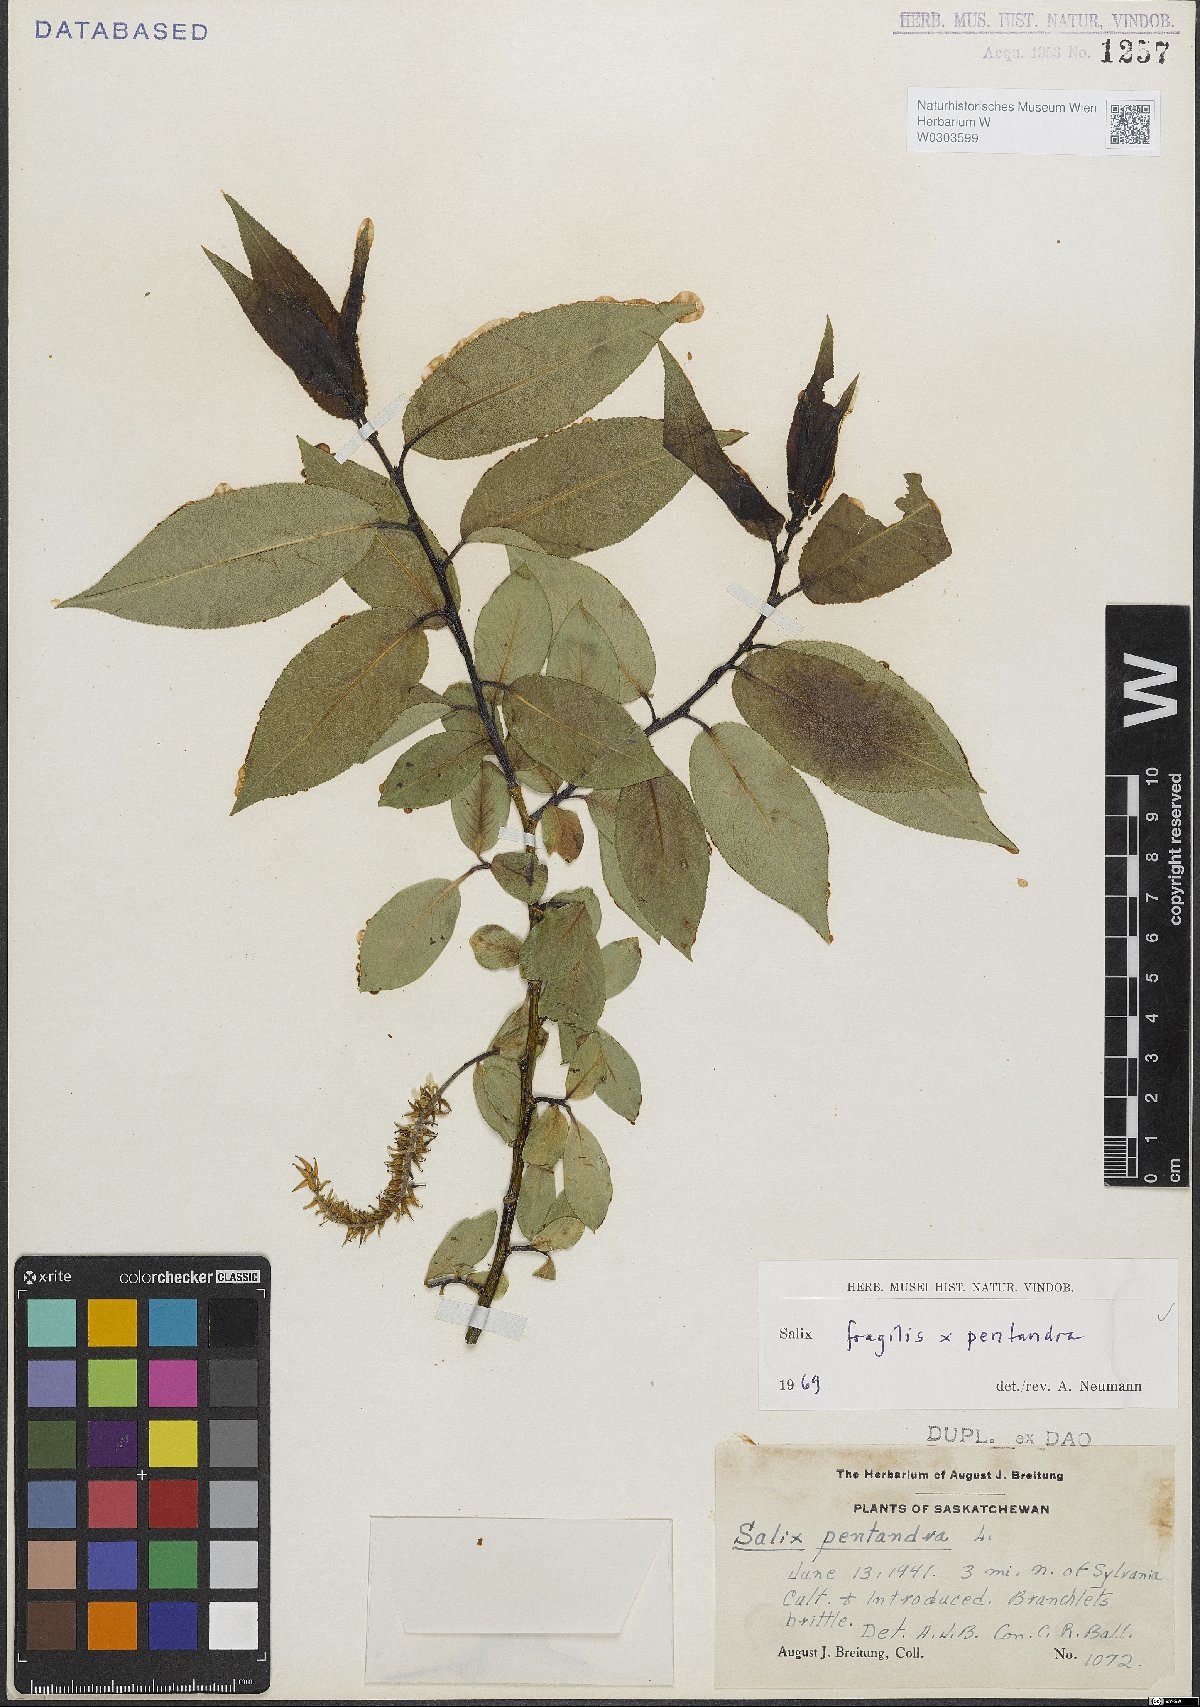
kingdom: Plantae
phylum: Tracheophyta
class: Magnoliopsida
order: Malpighiales
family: Salicaceae
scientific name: Salicaceae
